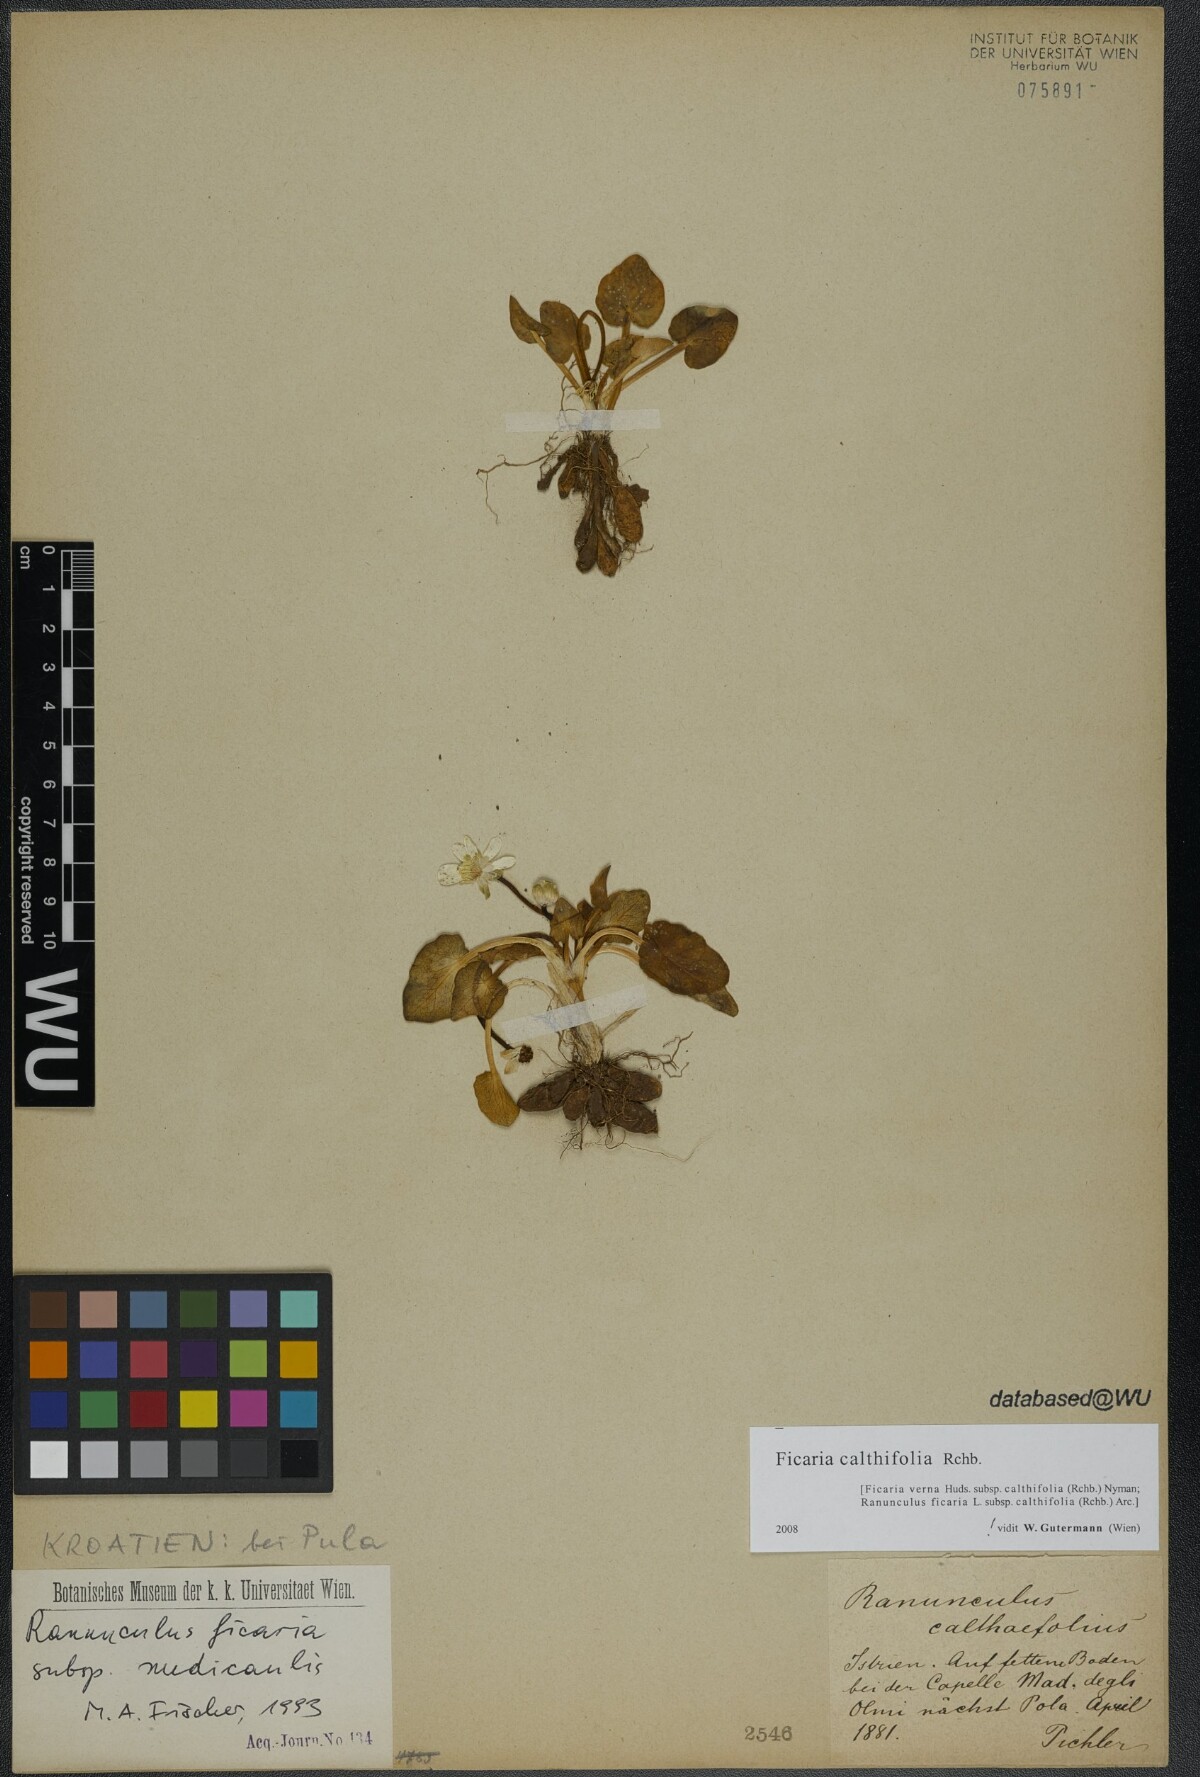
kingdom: Plantae
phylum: Tracheophyta
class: Magnoliopsida
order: Ranunculales
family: Ranunculaceae
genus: Ficaria
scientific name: Ficaria calthifolia
